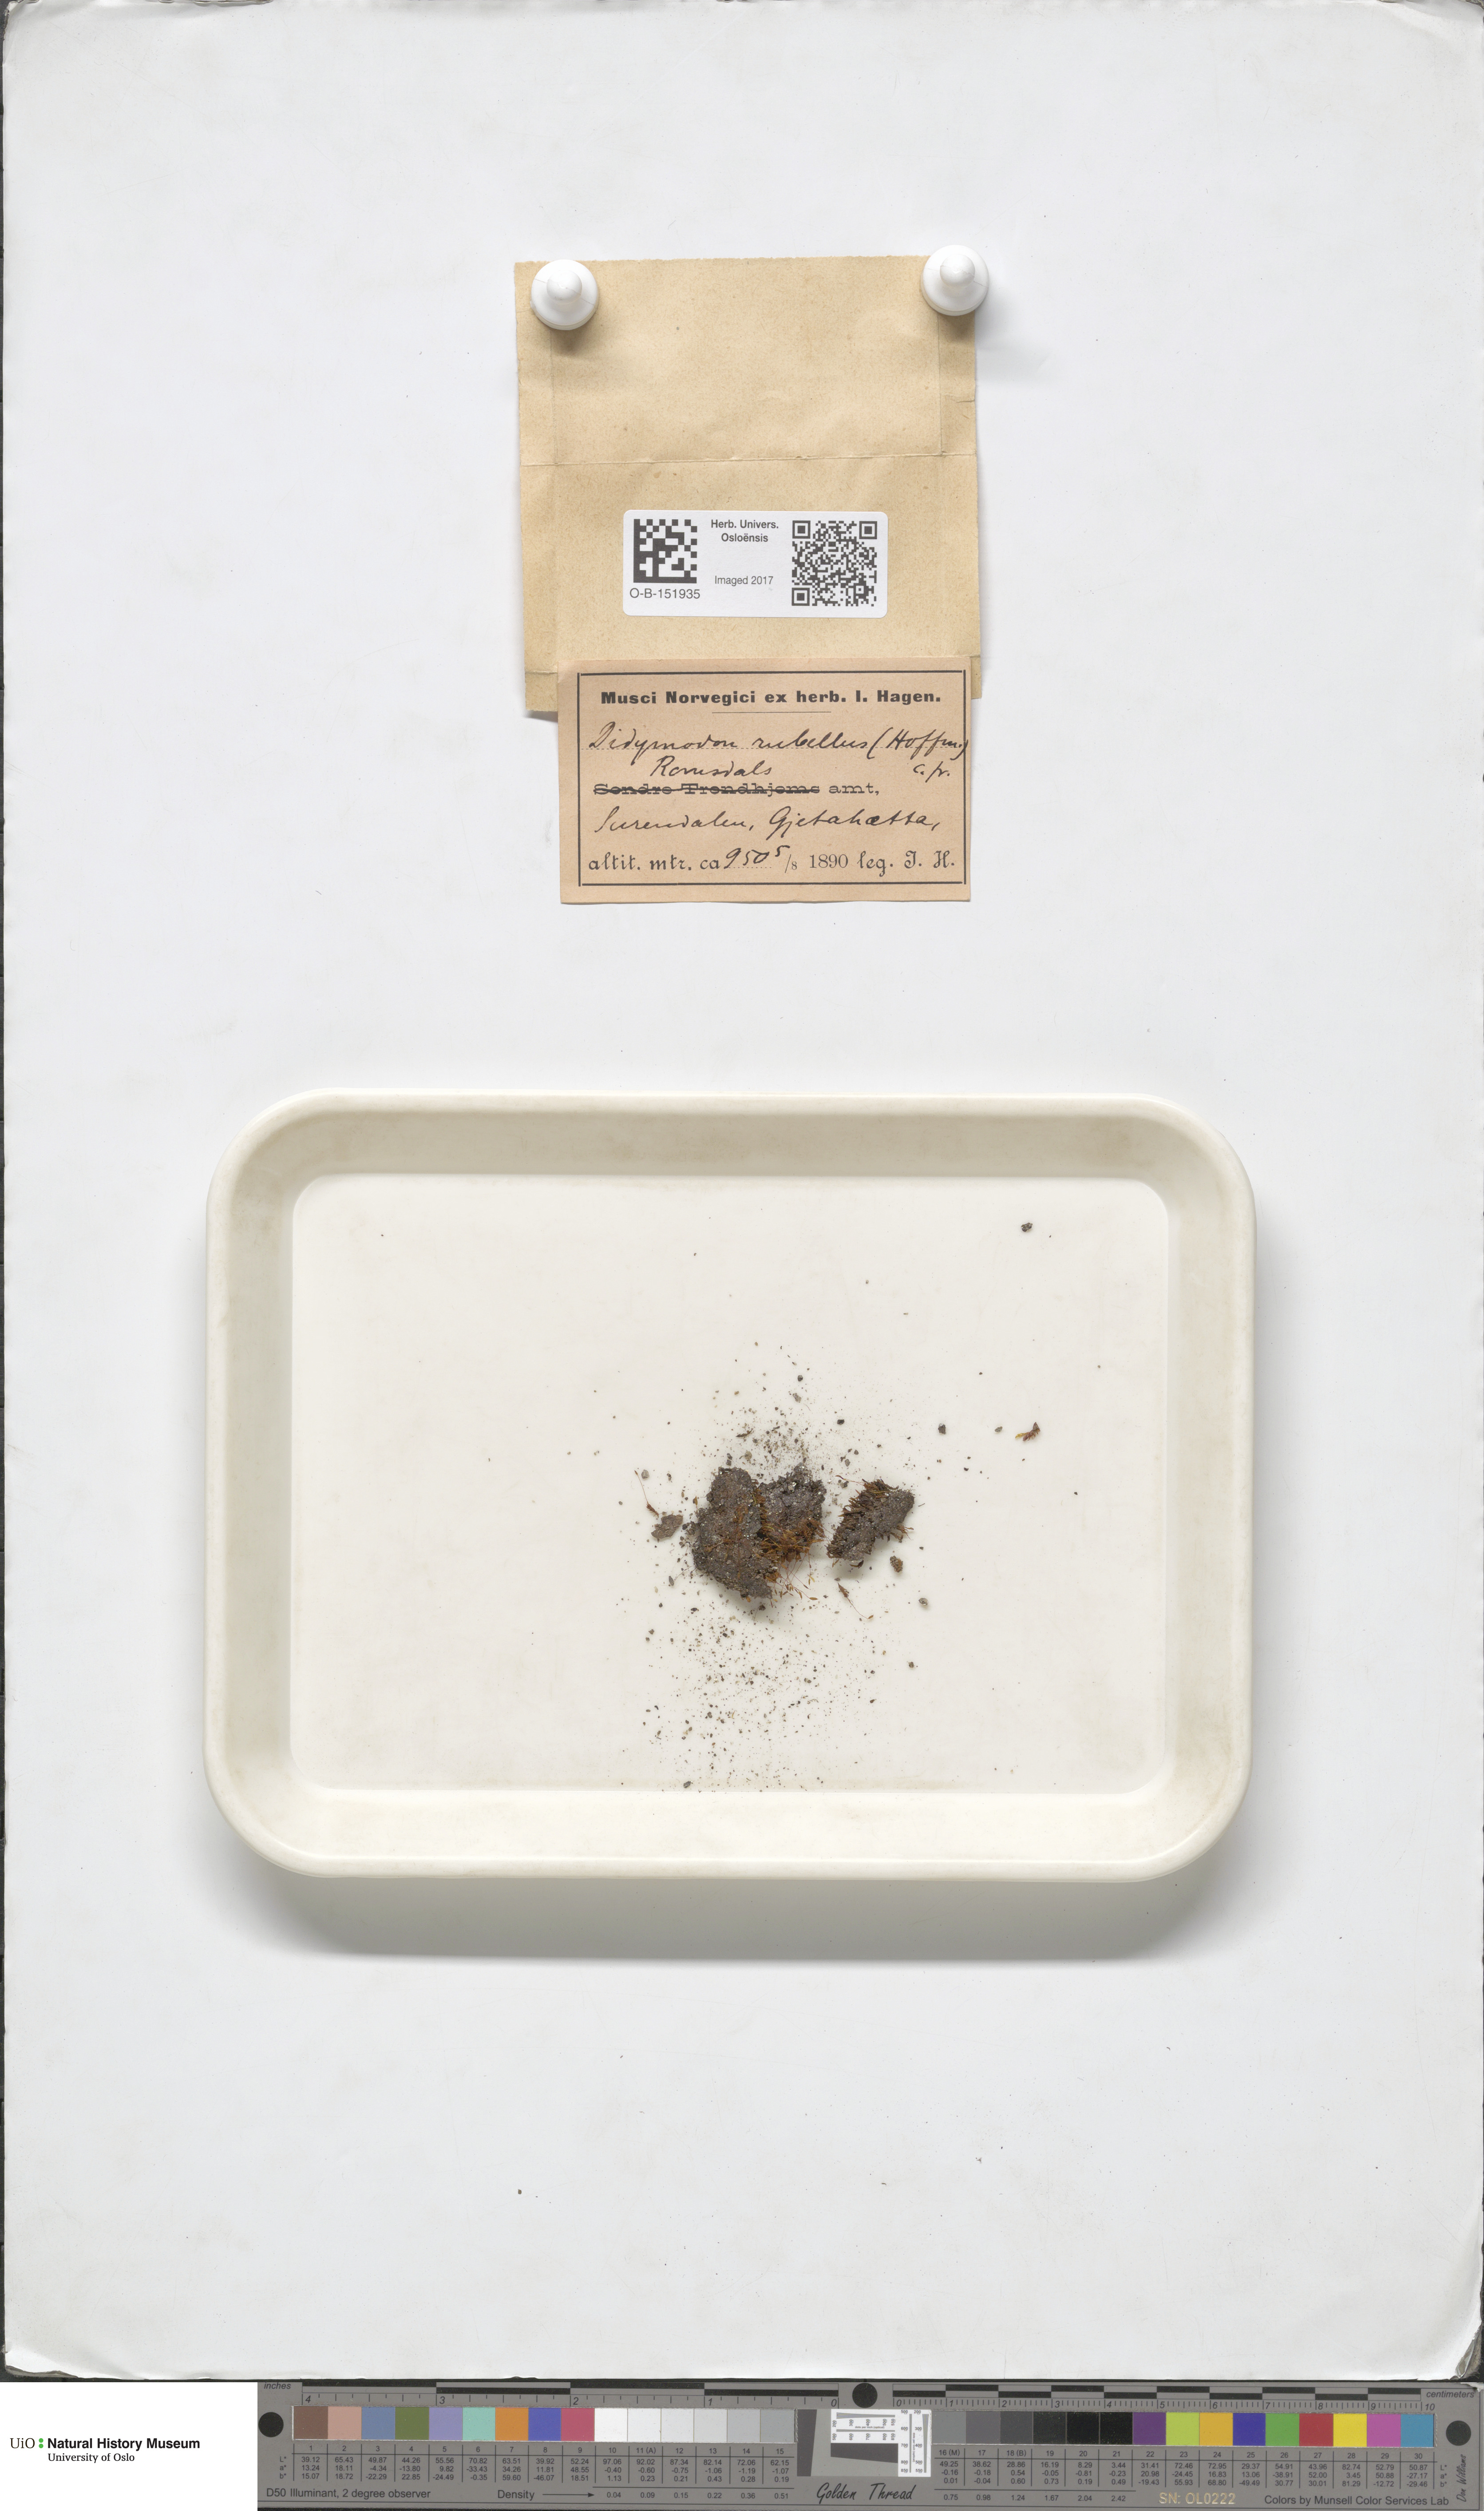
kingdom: Plantae
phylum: Bryophyta
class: Bryopsida
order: Pottiales
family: Pottiaceae
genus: Bryoerythrophyllum
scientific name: Bryoerythrophyllum recurvirostrum
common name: Red beard moss
